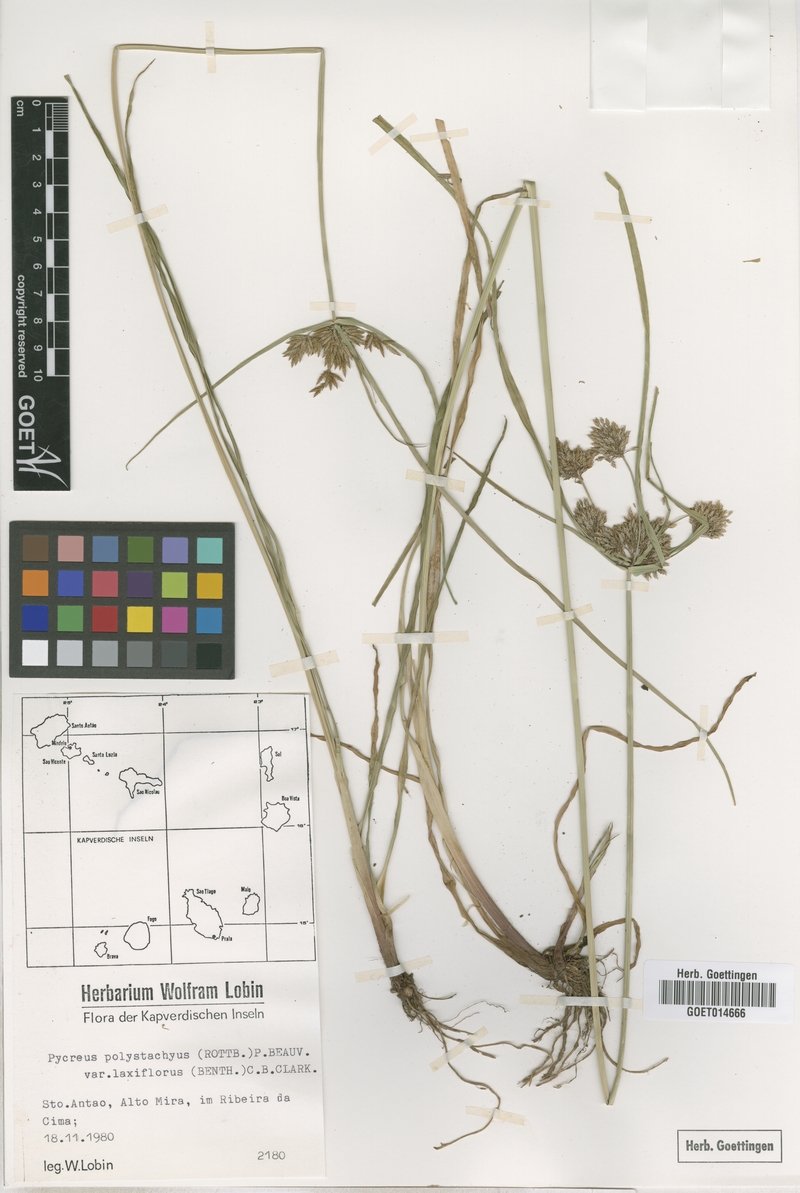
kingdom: Plantae
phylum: Tracheophyta
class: Liliopsida
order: Poales
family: Cyperaceae
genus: Cyperus
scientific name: Cyperus polystachyos
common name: Bunchy flat sedge
